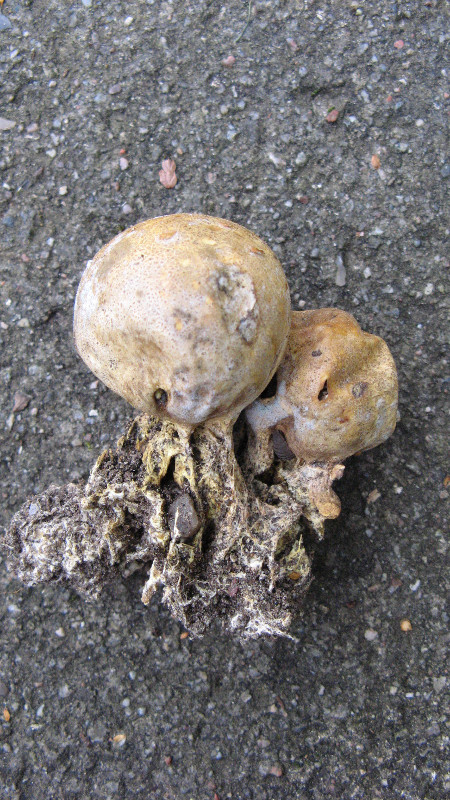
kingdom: Fungi
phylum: Basidiomycota
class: Agaricomycetes
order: Boletales
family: Sclerodermataceae
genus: Scleroderma
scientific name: Scleroderma verrucosum
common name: stilket bruskbold
